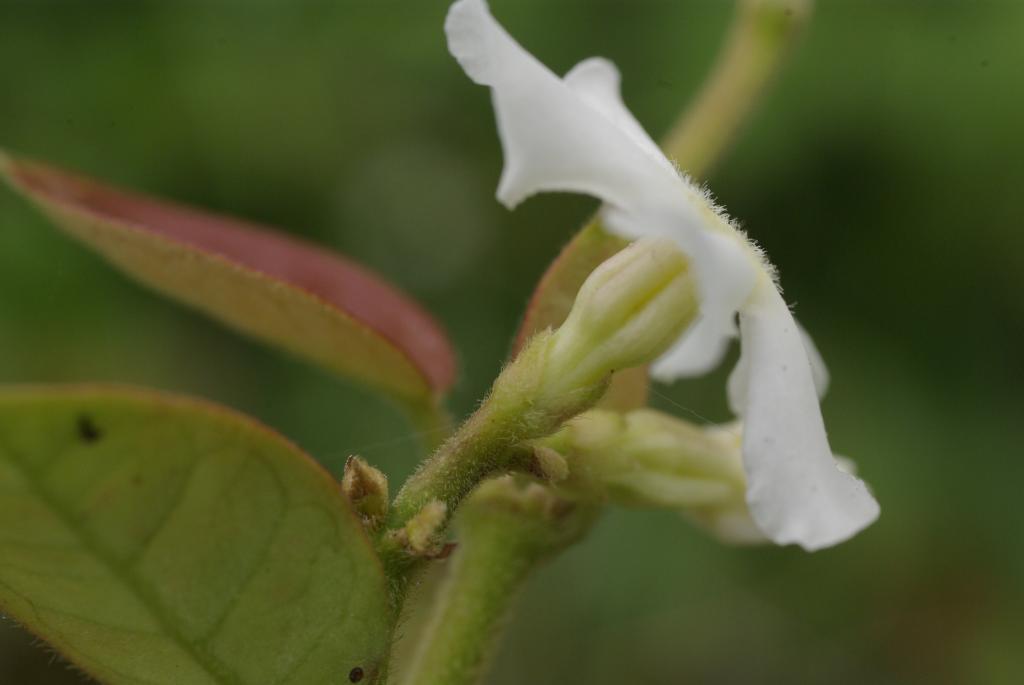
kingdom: Plantae
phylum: Tracheophyta
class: Magnoliopsida
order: Gentianales
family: Apocynaceae
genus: Trachelospermum
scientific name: Trachelospermum jasminoides
